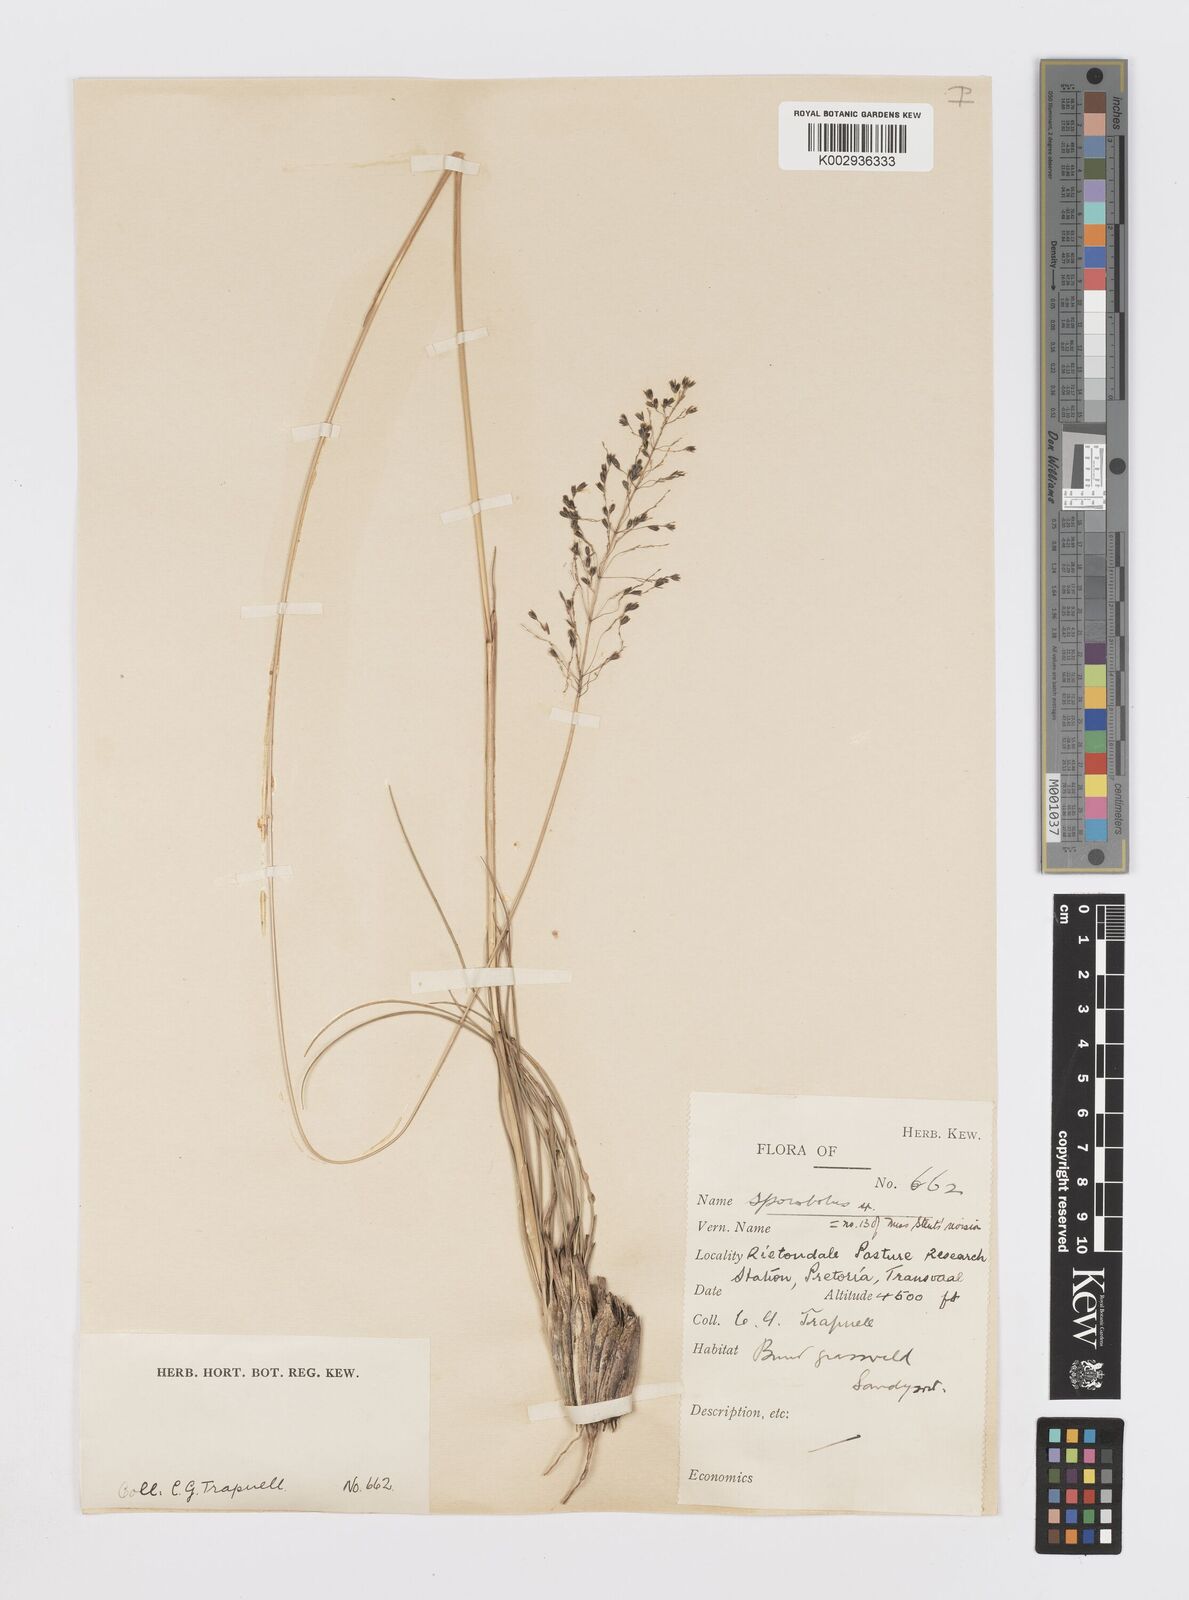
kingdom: Plantae
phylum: Tracheophyta
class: Liliopsida
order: Poales
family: Poaceae
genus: Sporobolus
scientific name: Sporobolus centrifugus
